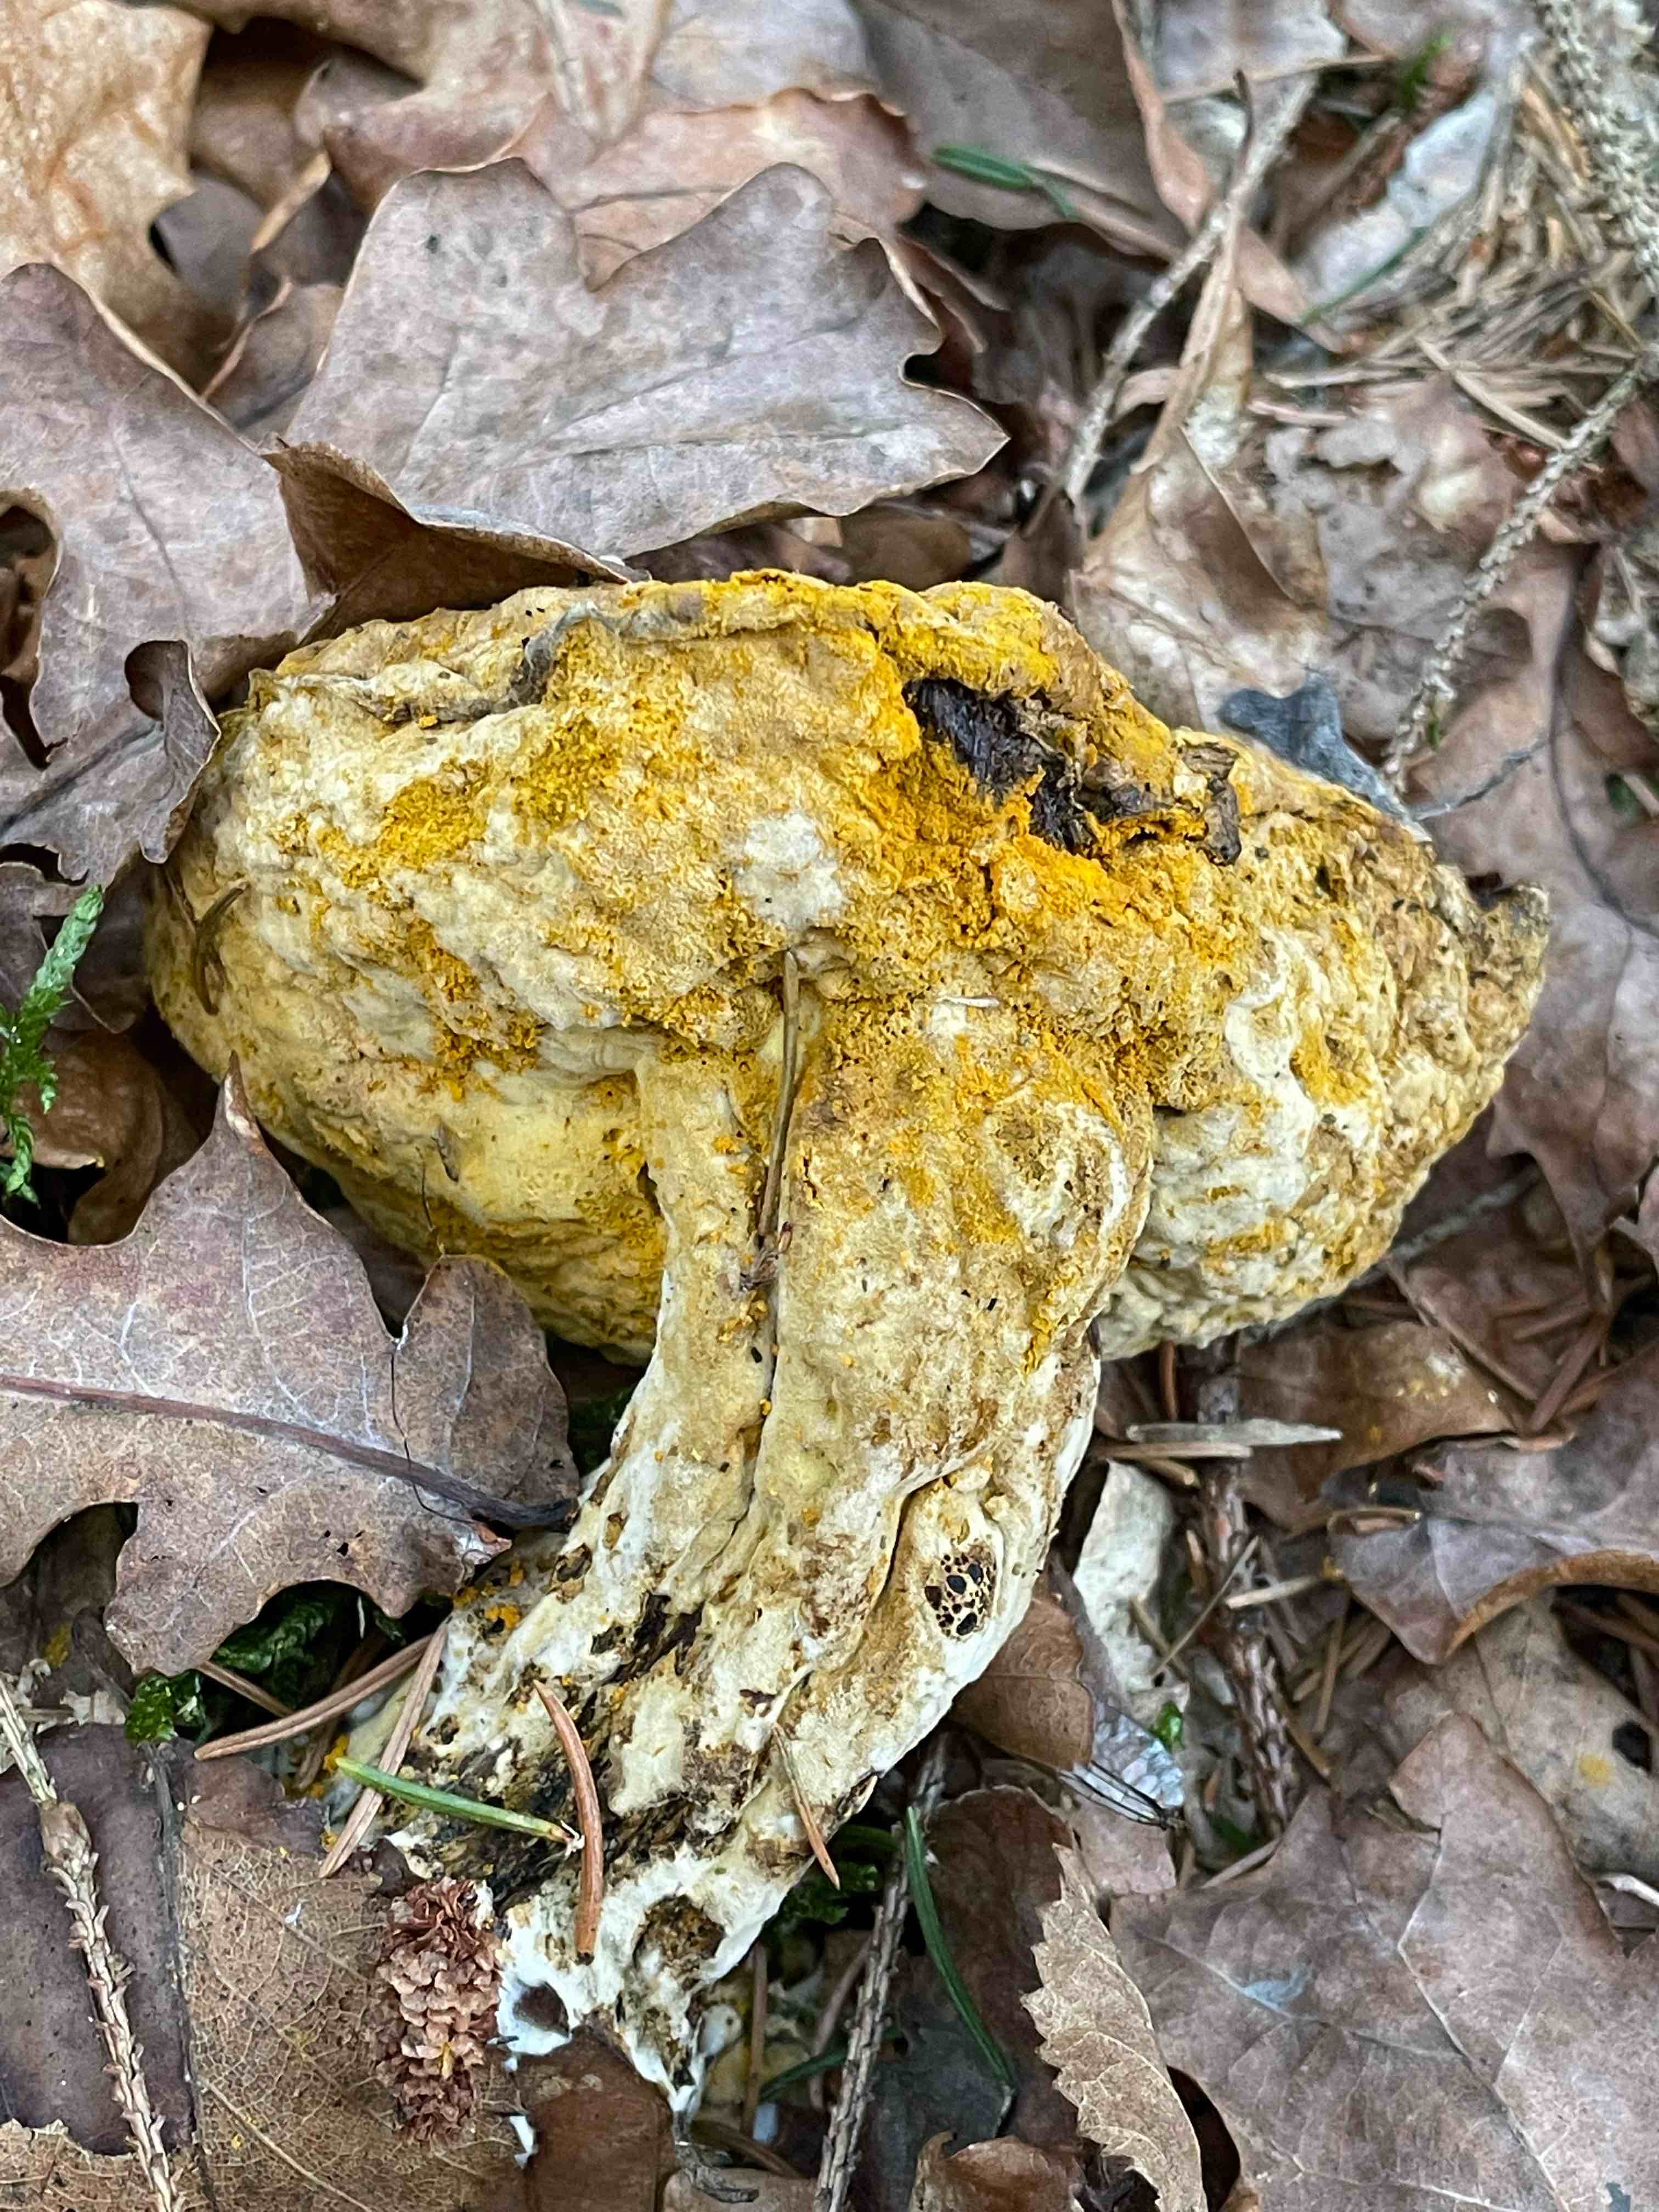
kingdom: Fungi
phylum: Ascomycota
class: Sordariomycetes
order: Hypocreales
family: Hypocreaceae
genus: Hypomyces
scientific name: Hypomyces
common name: snylteskorpe
